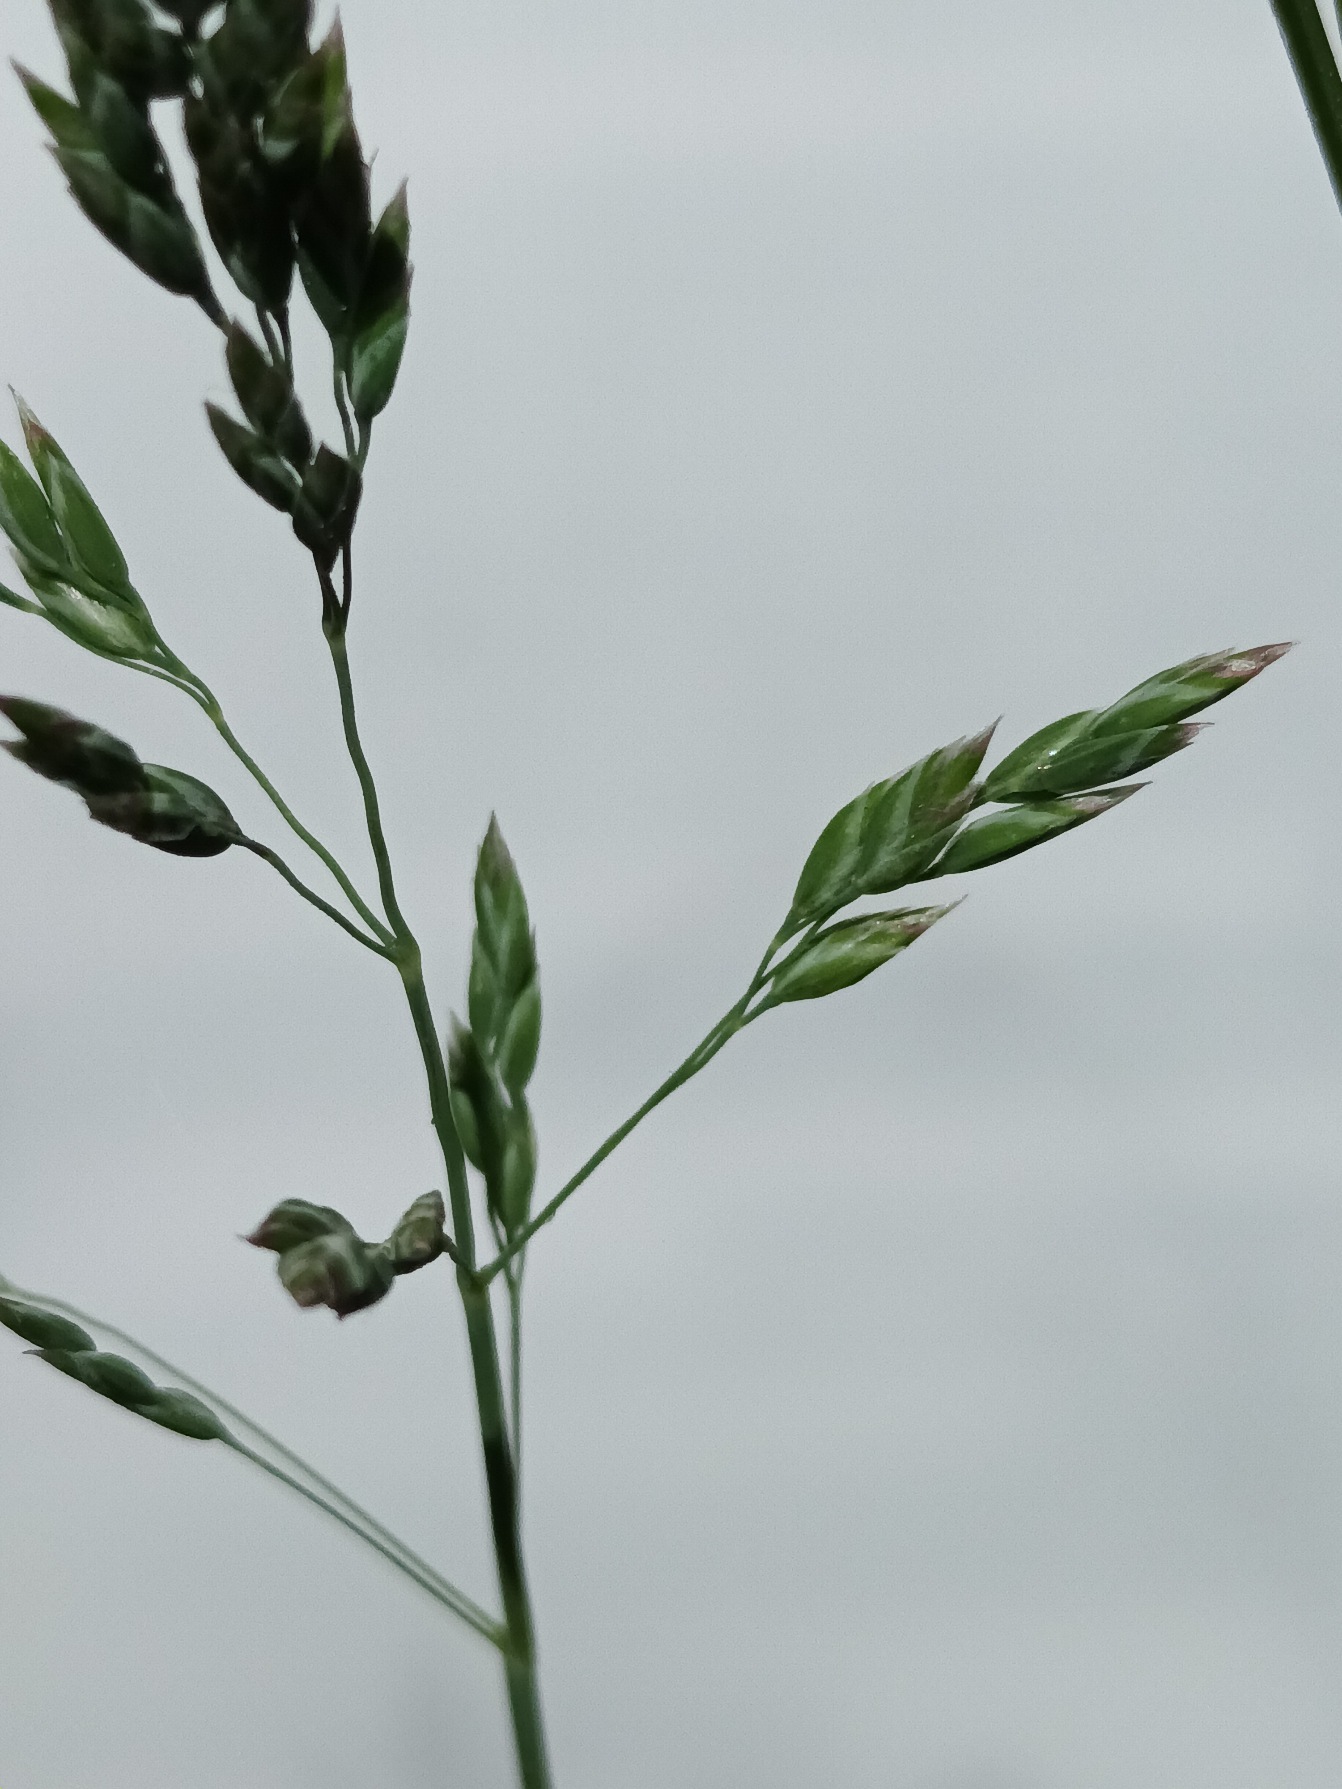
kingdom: Plantae
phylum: Tracheophyta
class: Liliopsida
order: Poales
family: Poaceae
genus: Poa
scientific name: Poa humilis
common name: Blågrøn rapgræs
